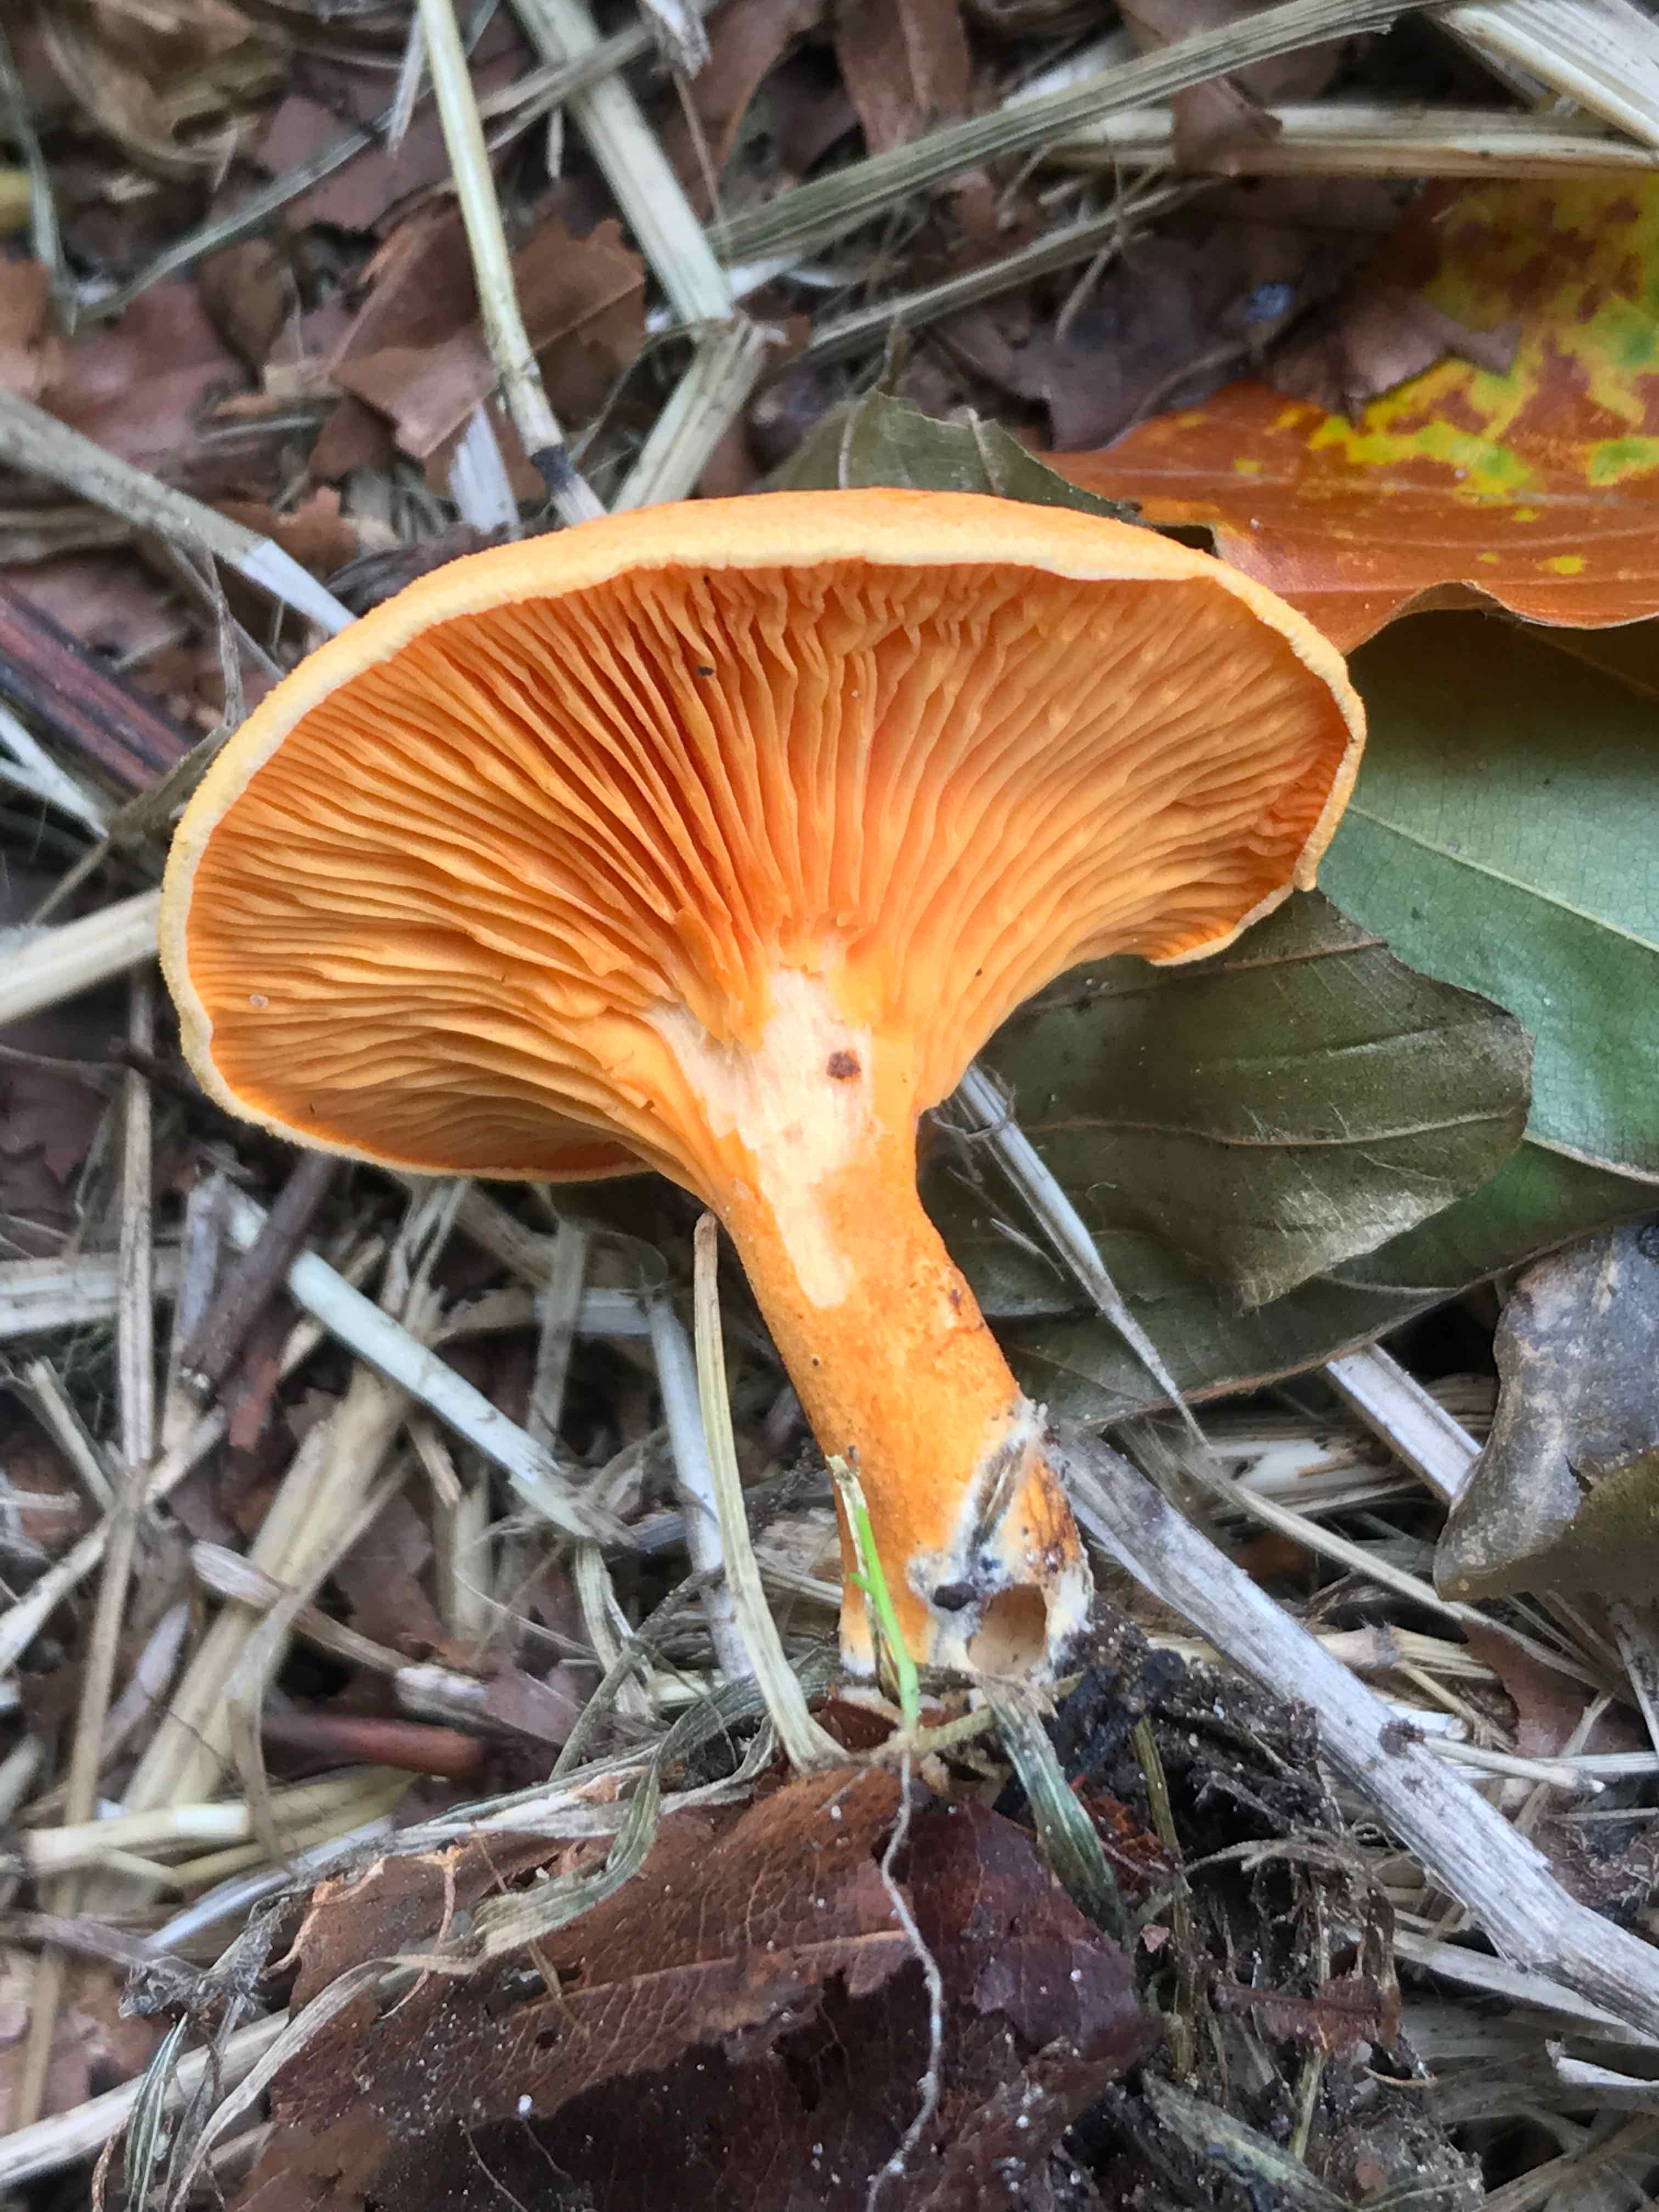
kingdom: Fungi
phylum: Basidiomycota
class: Agaricomycetes
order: Boletales
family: Hygrophoropsidaceae
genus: Hygrophoropsis
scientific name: Hygrophoropsis aurantiaca
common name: almindelig orangekantarel
